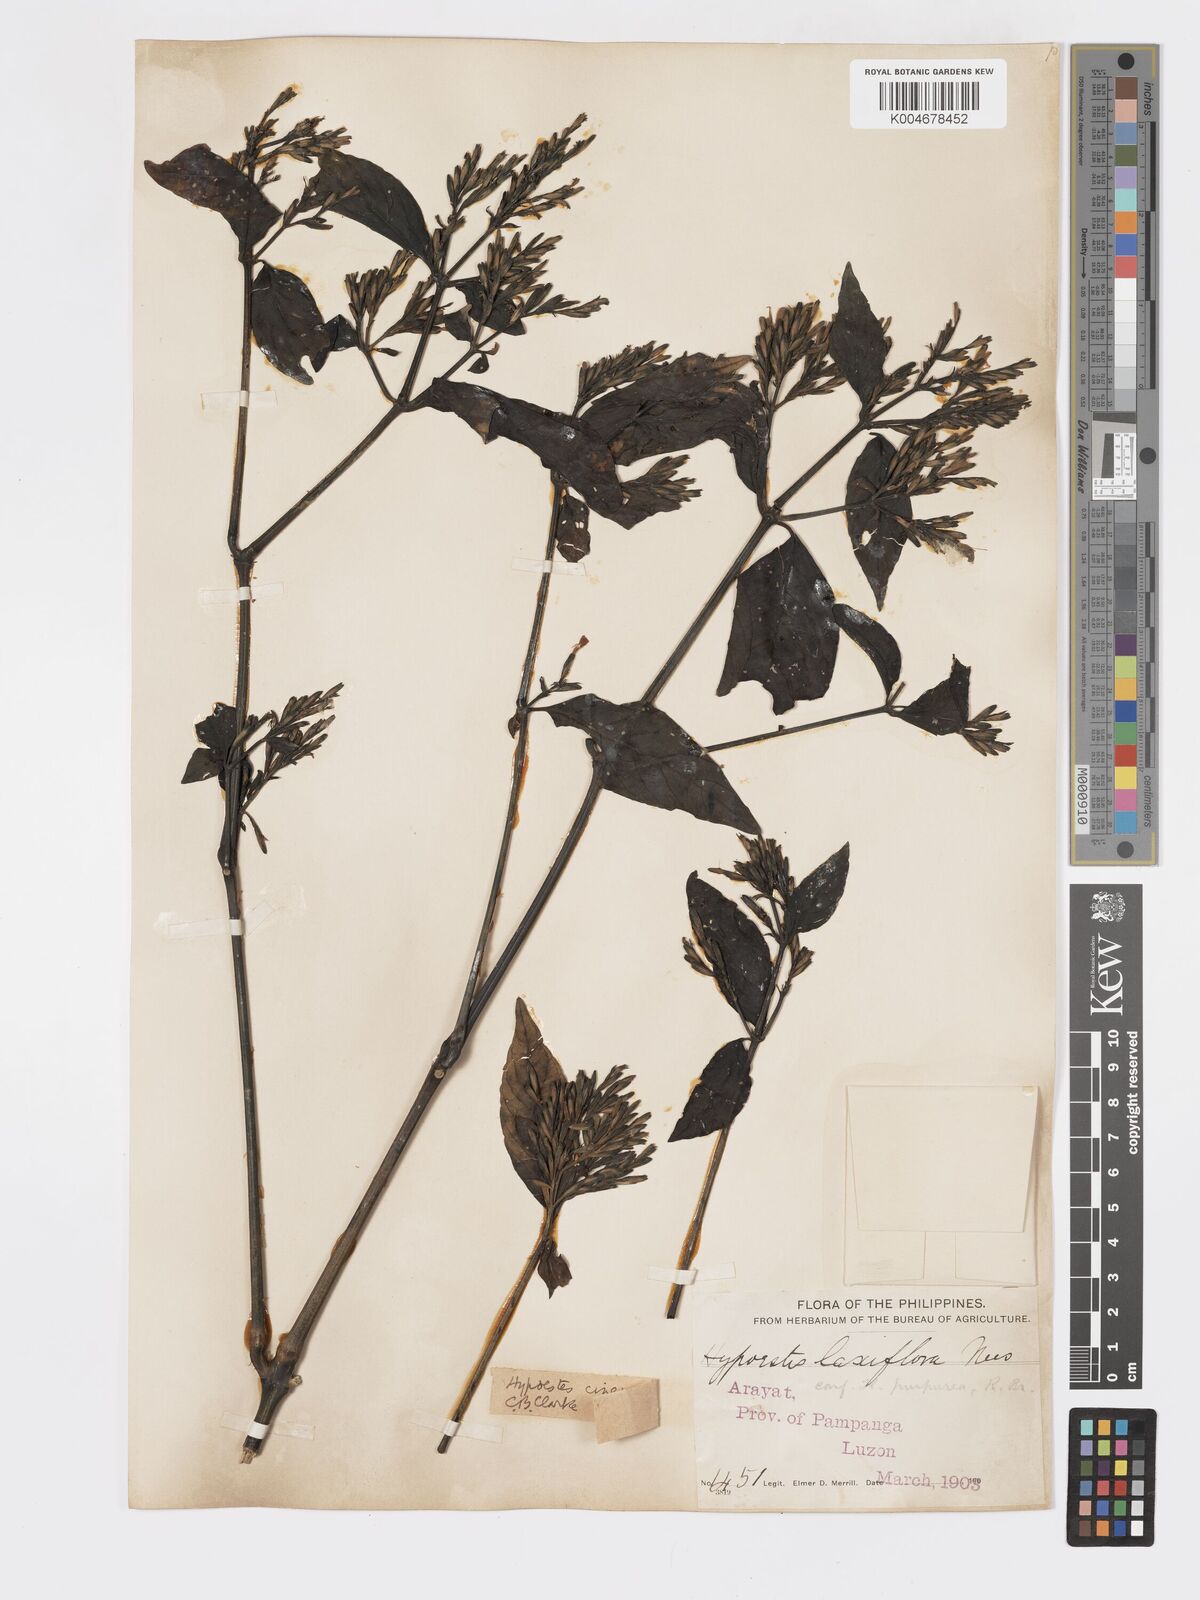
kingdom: Plantae
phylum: Tracheophyta
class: Magnoliopsida
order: Lamiales
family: Acanthaceae
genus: Hypoestes
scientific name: Hypoestes
